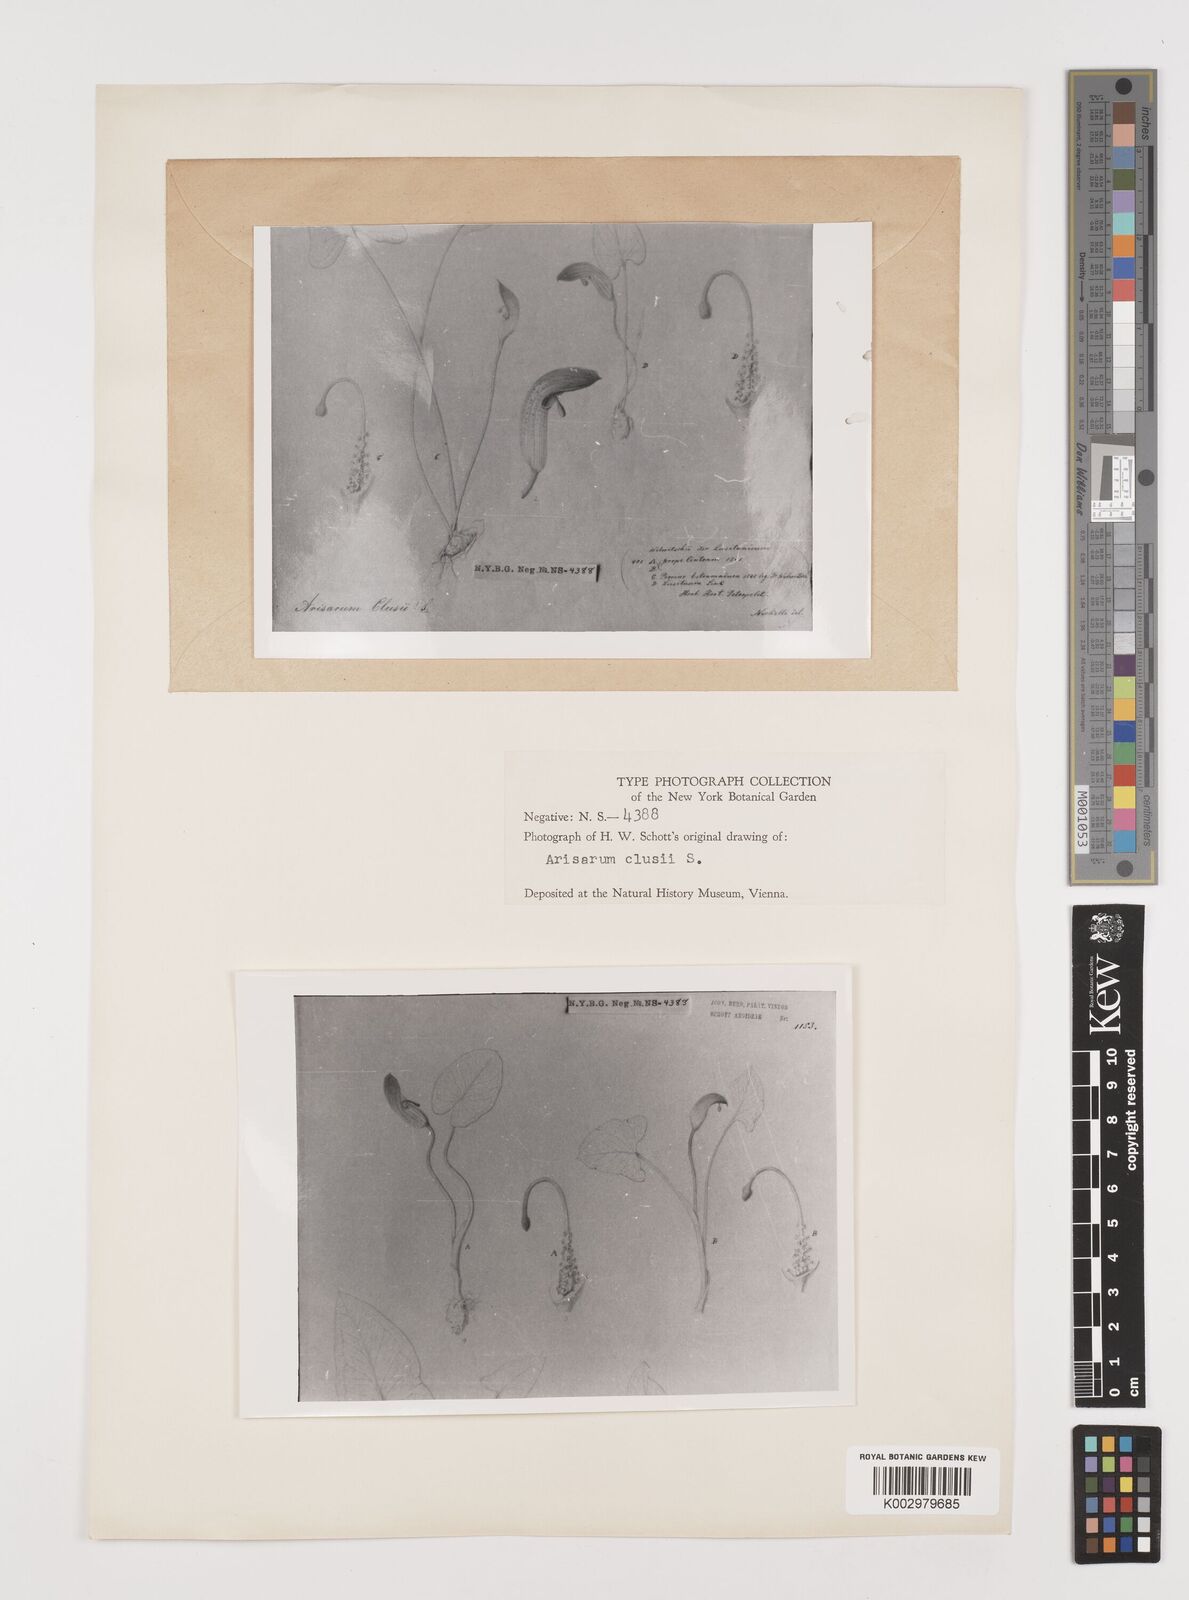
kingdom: Plantae
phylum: Tracheophyta
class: Liliopsida
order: Alismatales
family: Araceae
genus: Arisarum
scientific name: Arisarum simorrhinum
